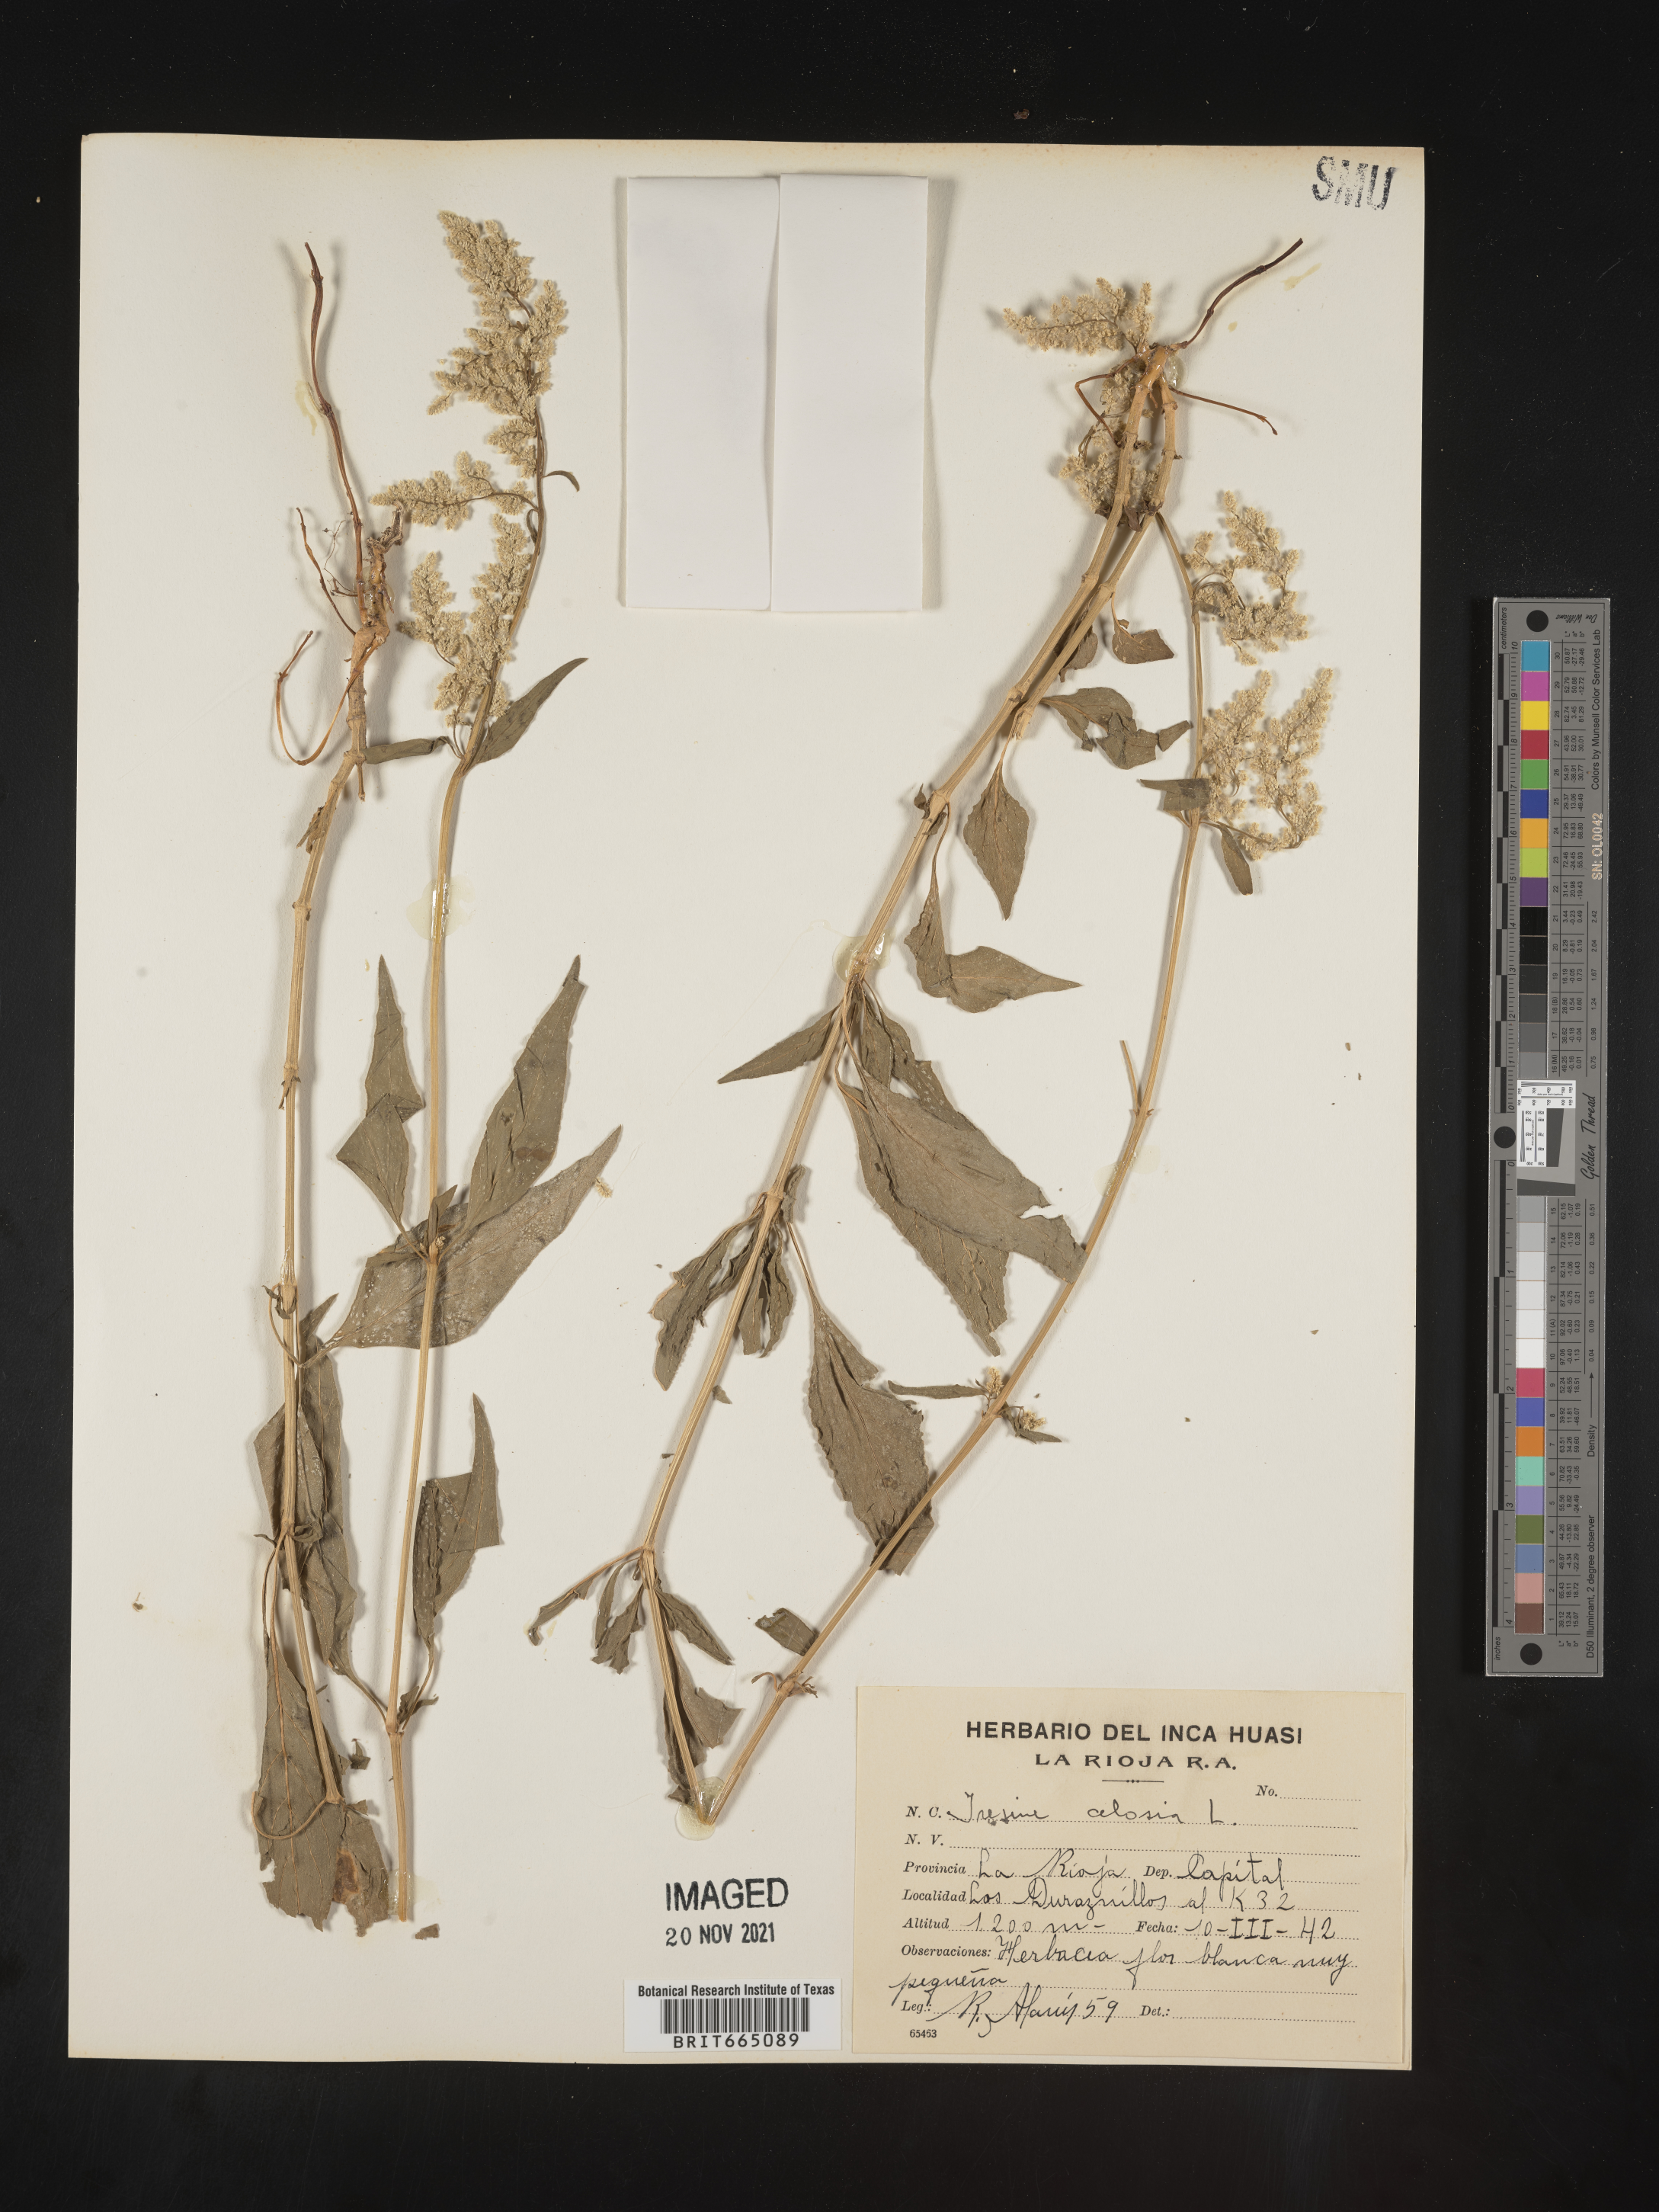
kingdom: Plantae
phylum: Tracheophyta
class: Magnoliopsida
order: Caryophyllales
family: Amaranthaceae
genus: Iresine
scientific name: Iresine
